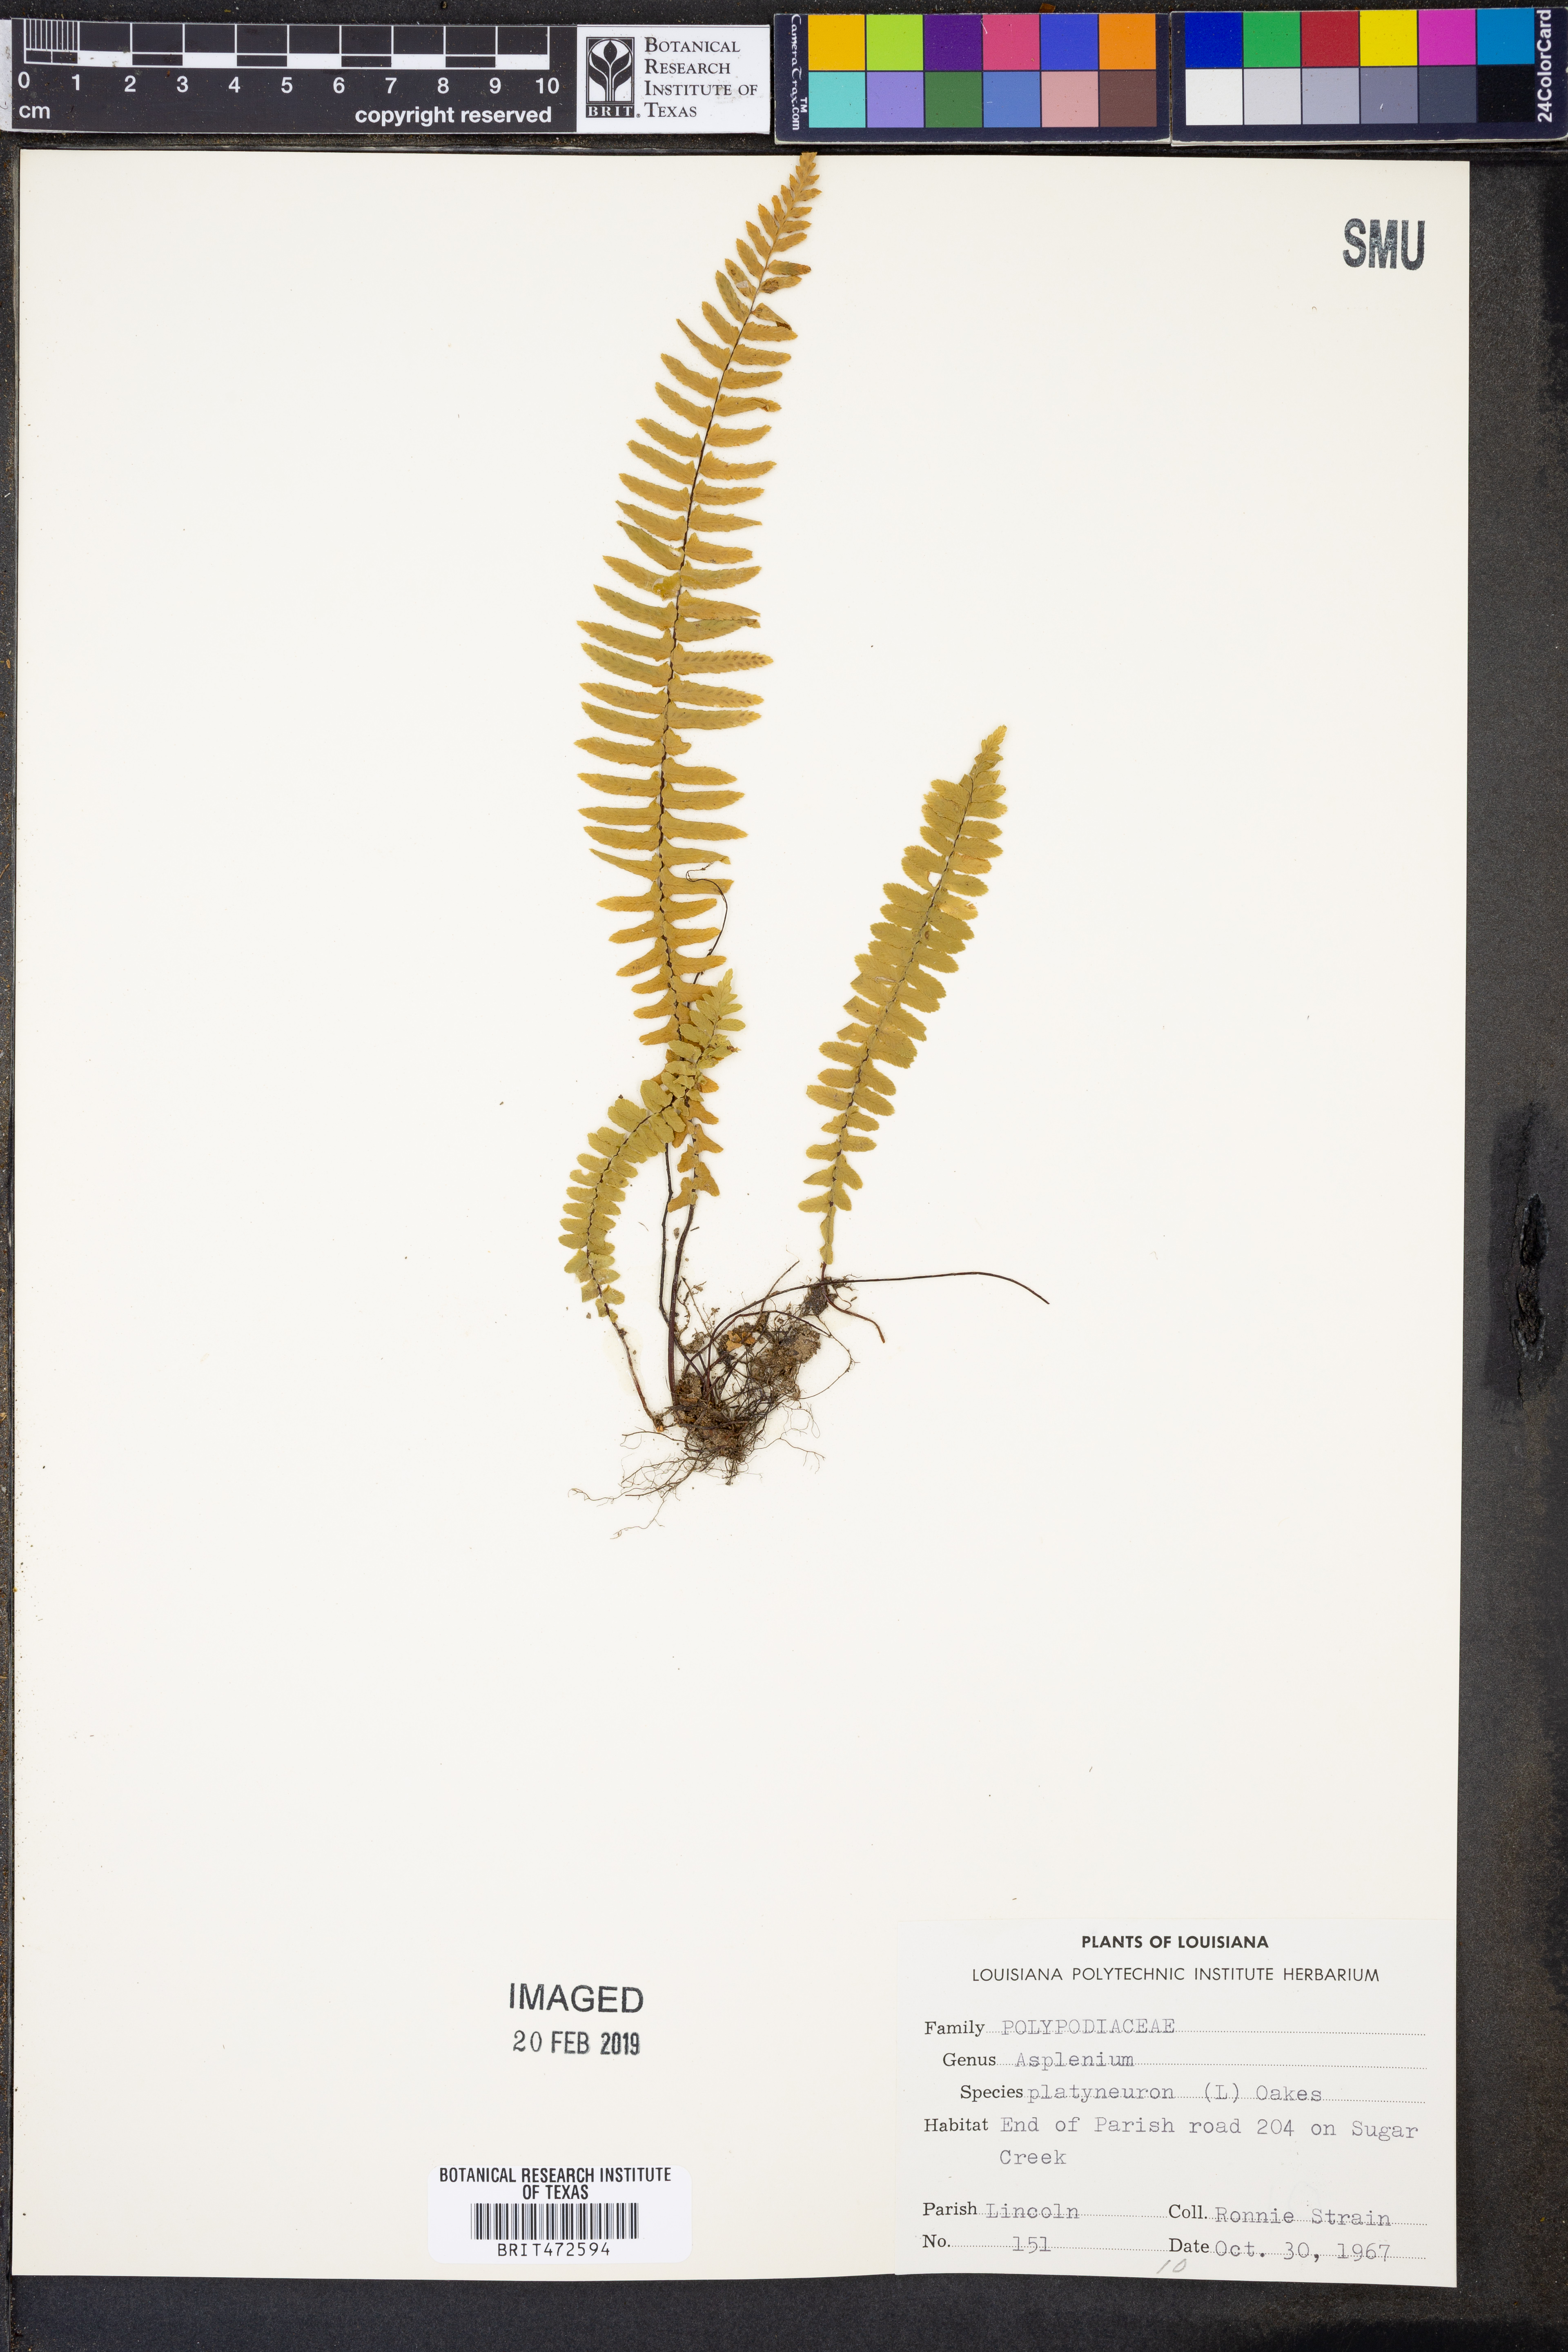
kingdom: Plantae
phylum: Tracheophyta
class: Polypodiopsida
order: Polypodiales
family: Aspleniaceae
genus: Asplenium
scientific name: Asplenium platyneuron
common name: Ebony spleenwort
